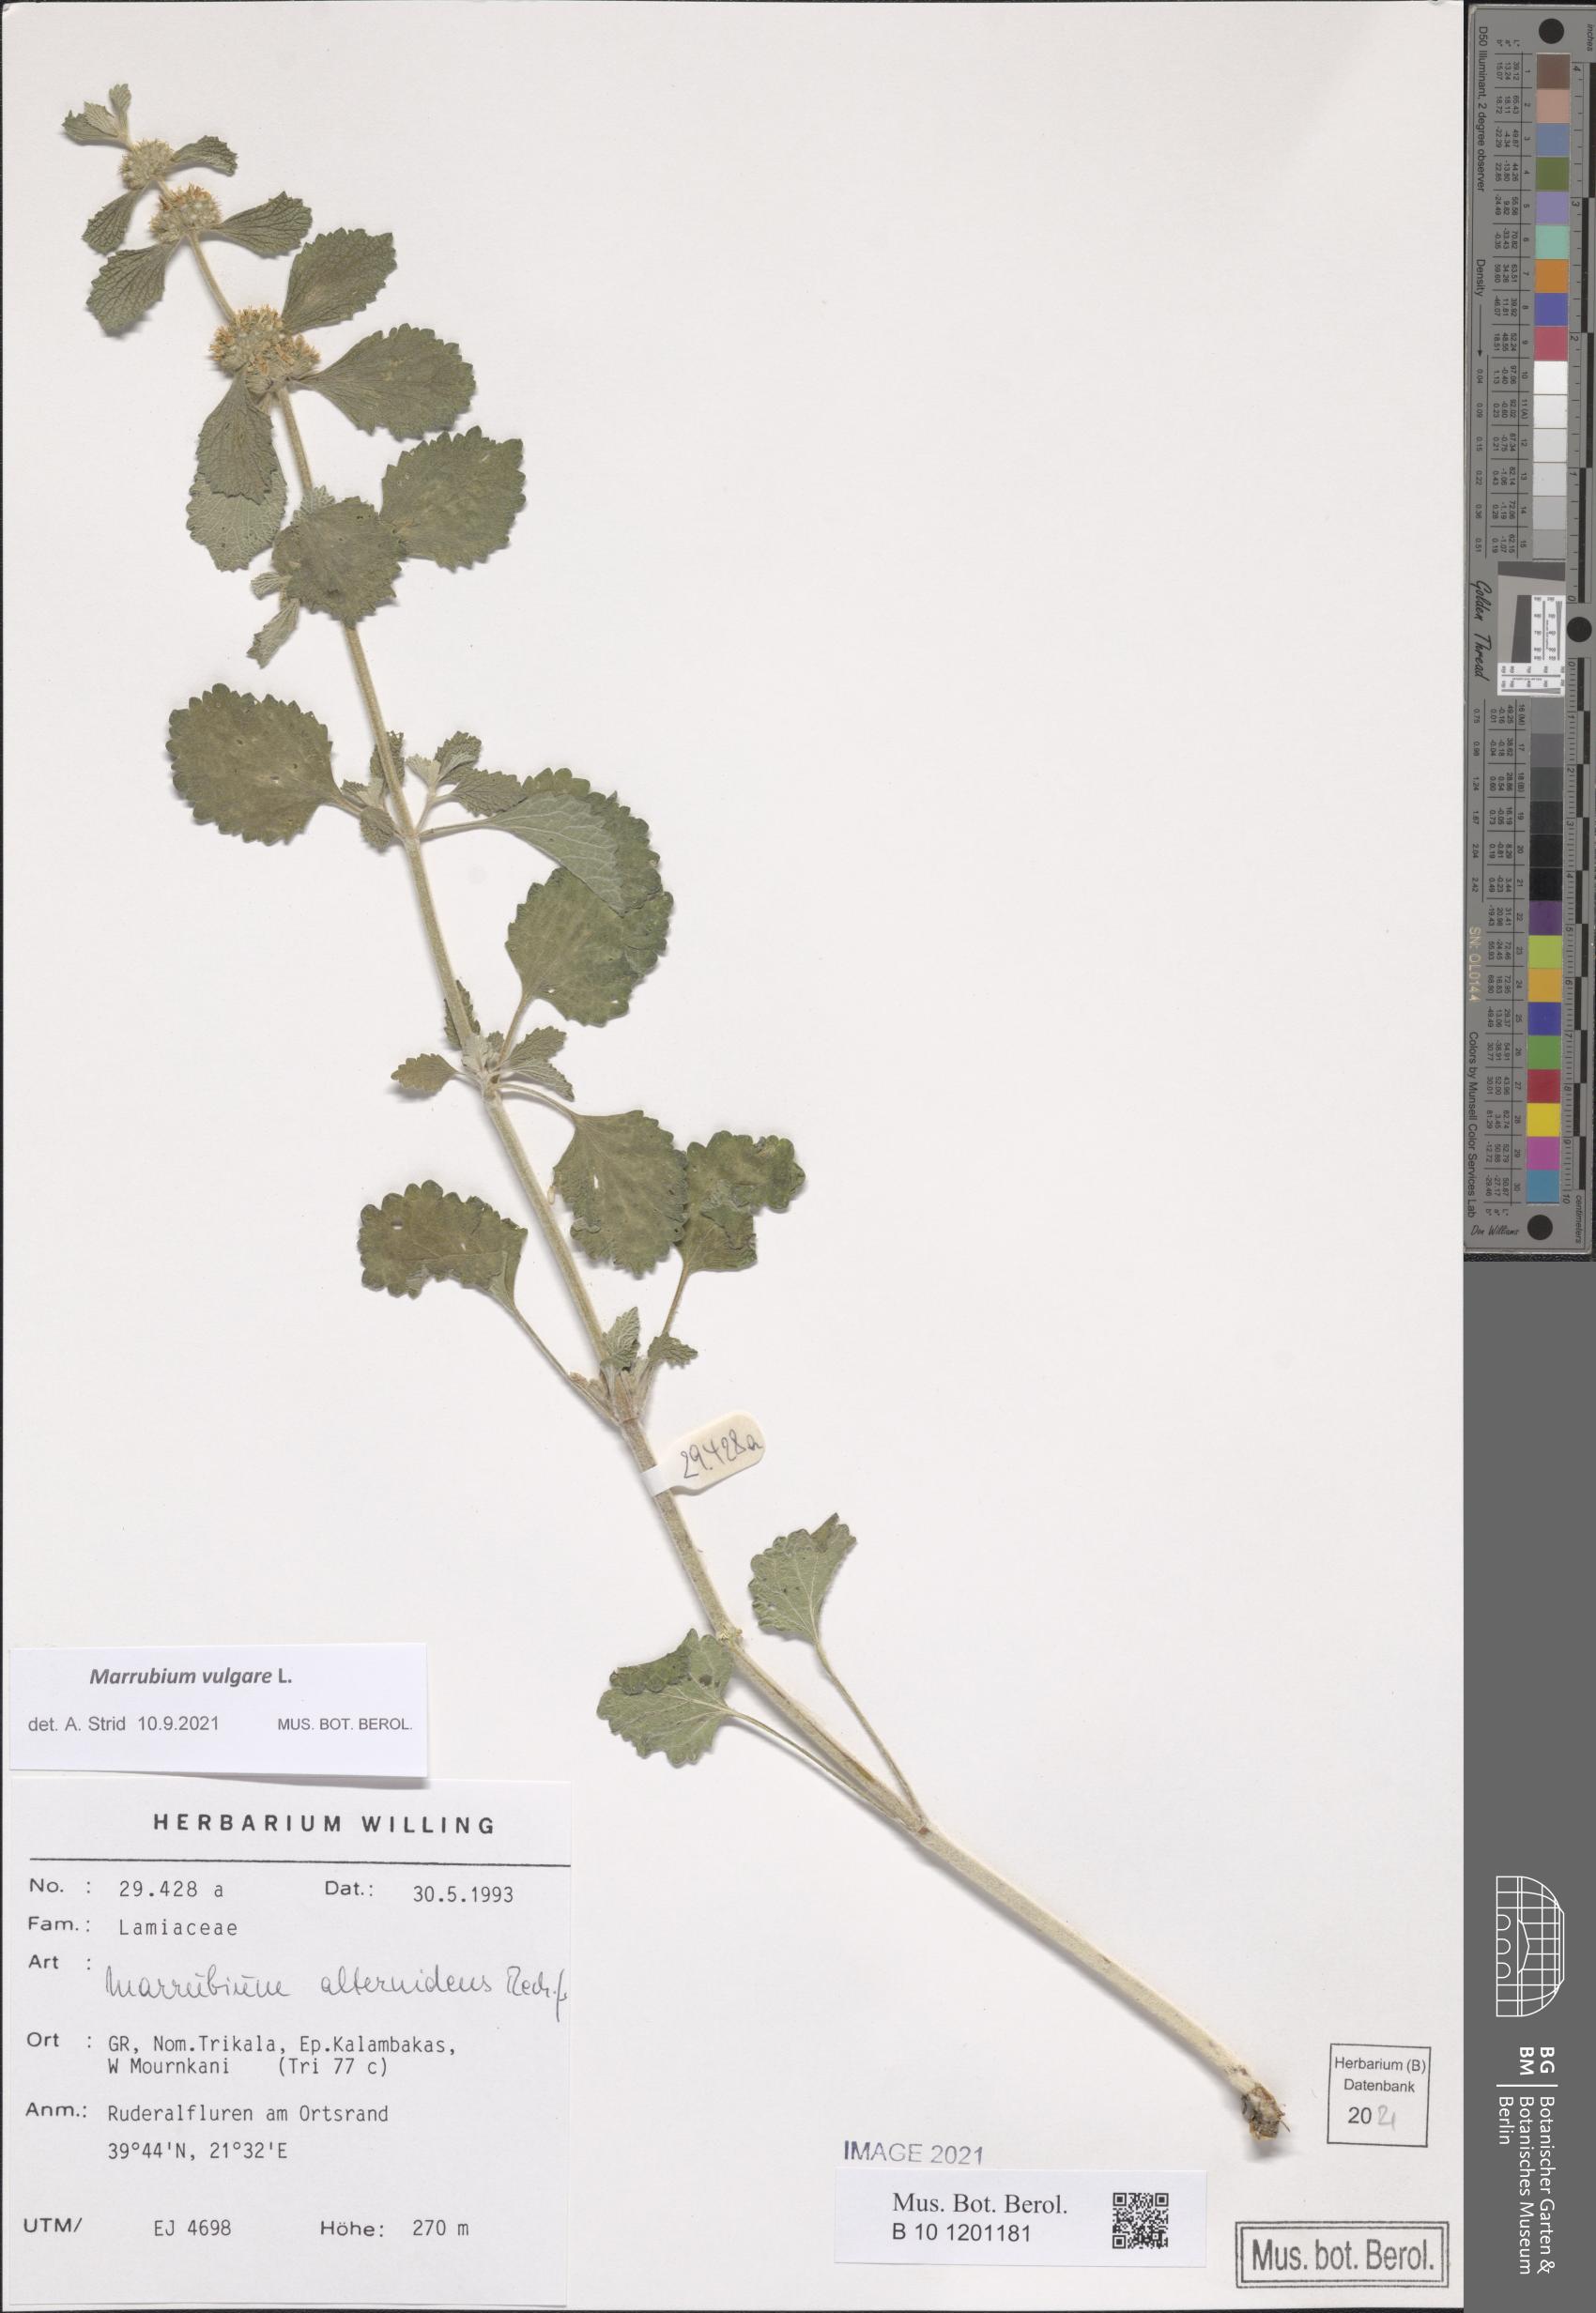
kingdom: Plantae
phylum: Tracheophyta
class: Magnoliopsida
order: Lamiales
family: Lamiaceae
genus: Marrubium
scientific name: Marrubium vulgare
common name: Horehound
